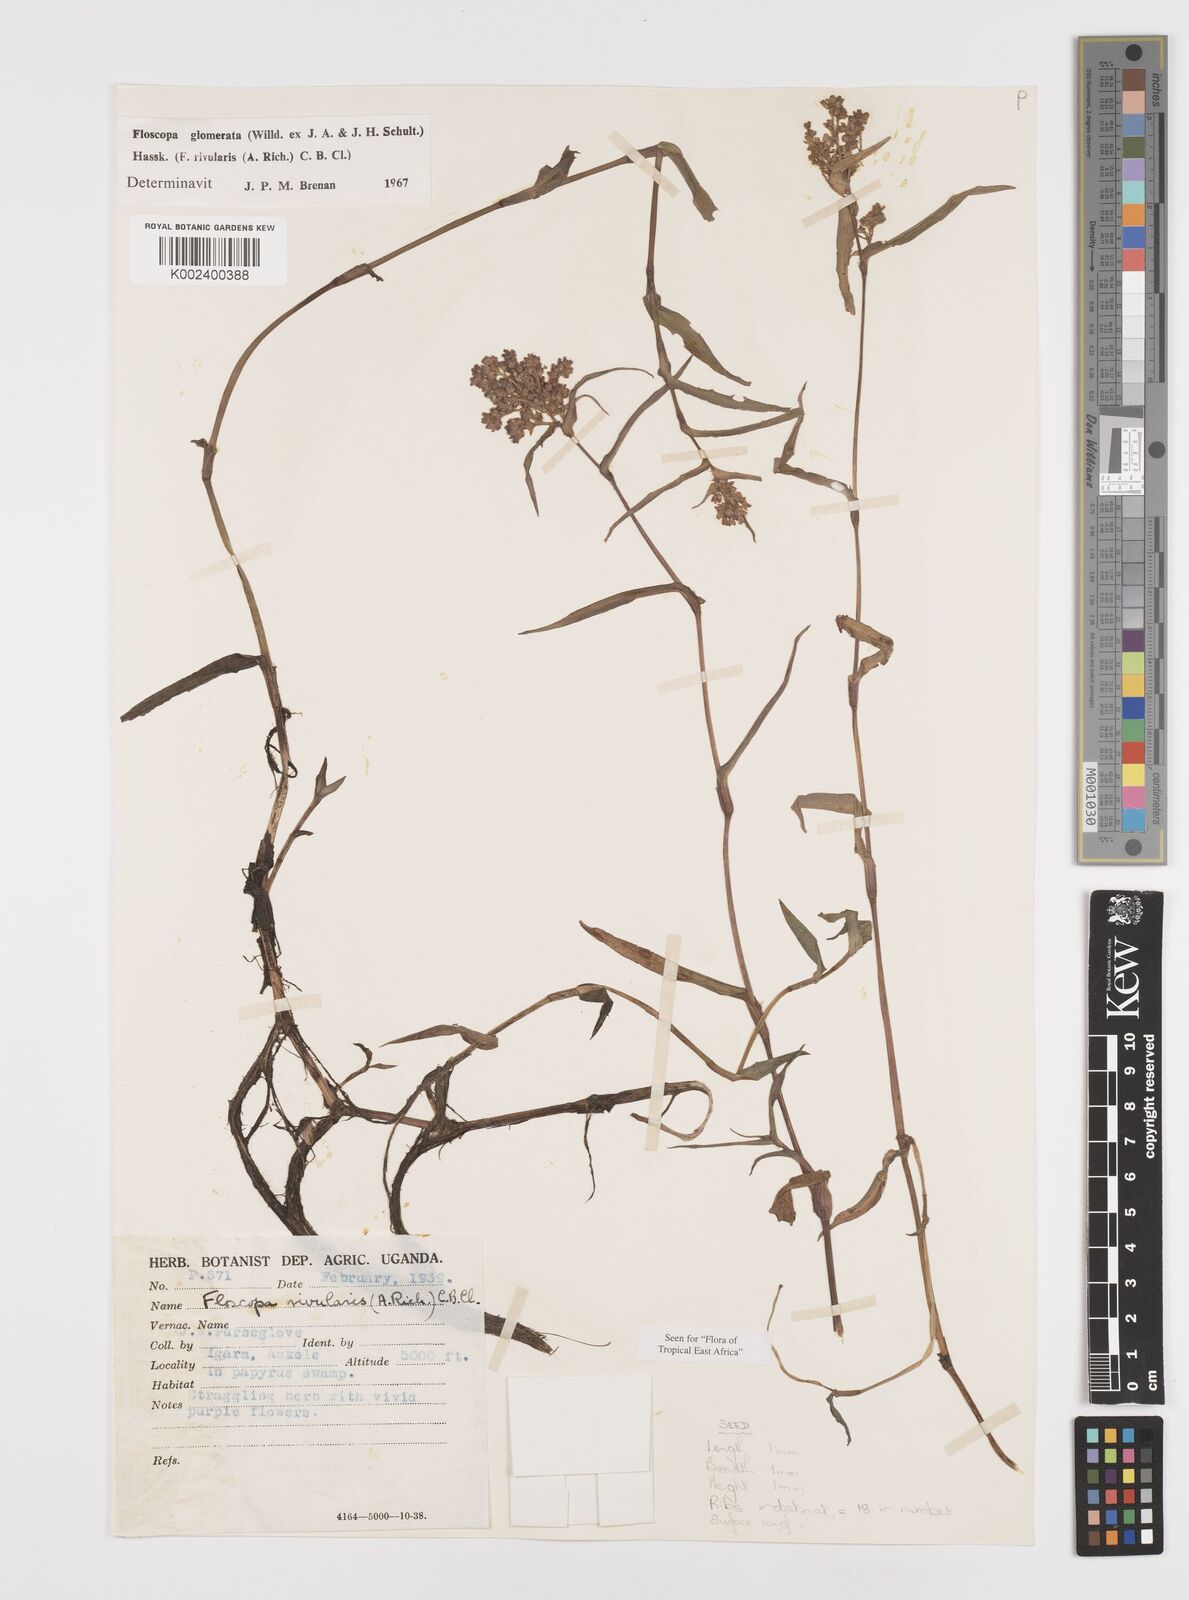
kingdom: Plantae
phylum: Tracheophyta
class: Liliopsida
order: Commelinales
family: Commelinaceae
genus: Floscopa
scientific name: Floscopa glomerata
